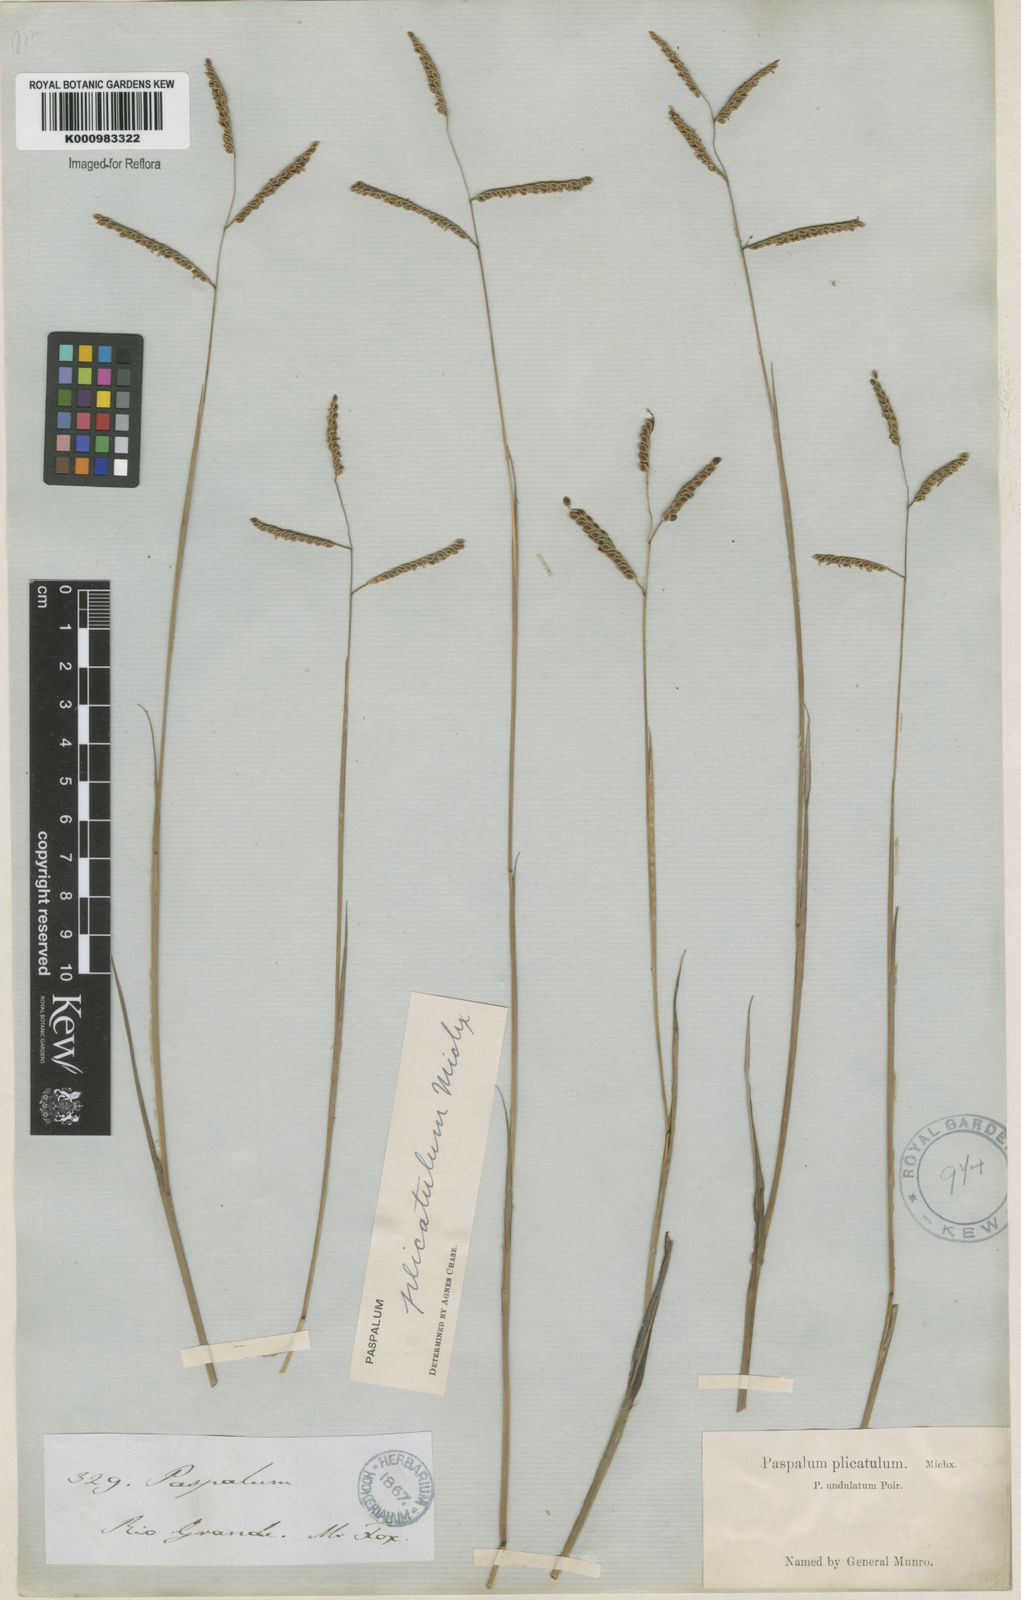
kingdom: Plantae
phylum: Tracheophyta
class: Liliopsida
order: Poales
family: Poaceae
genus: Paspalum
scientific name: Paspalum plicatulum
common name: Top paspalum
